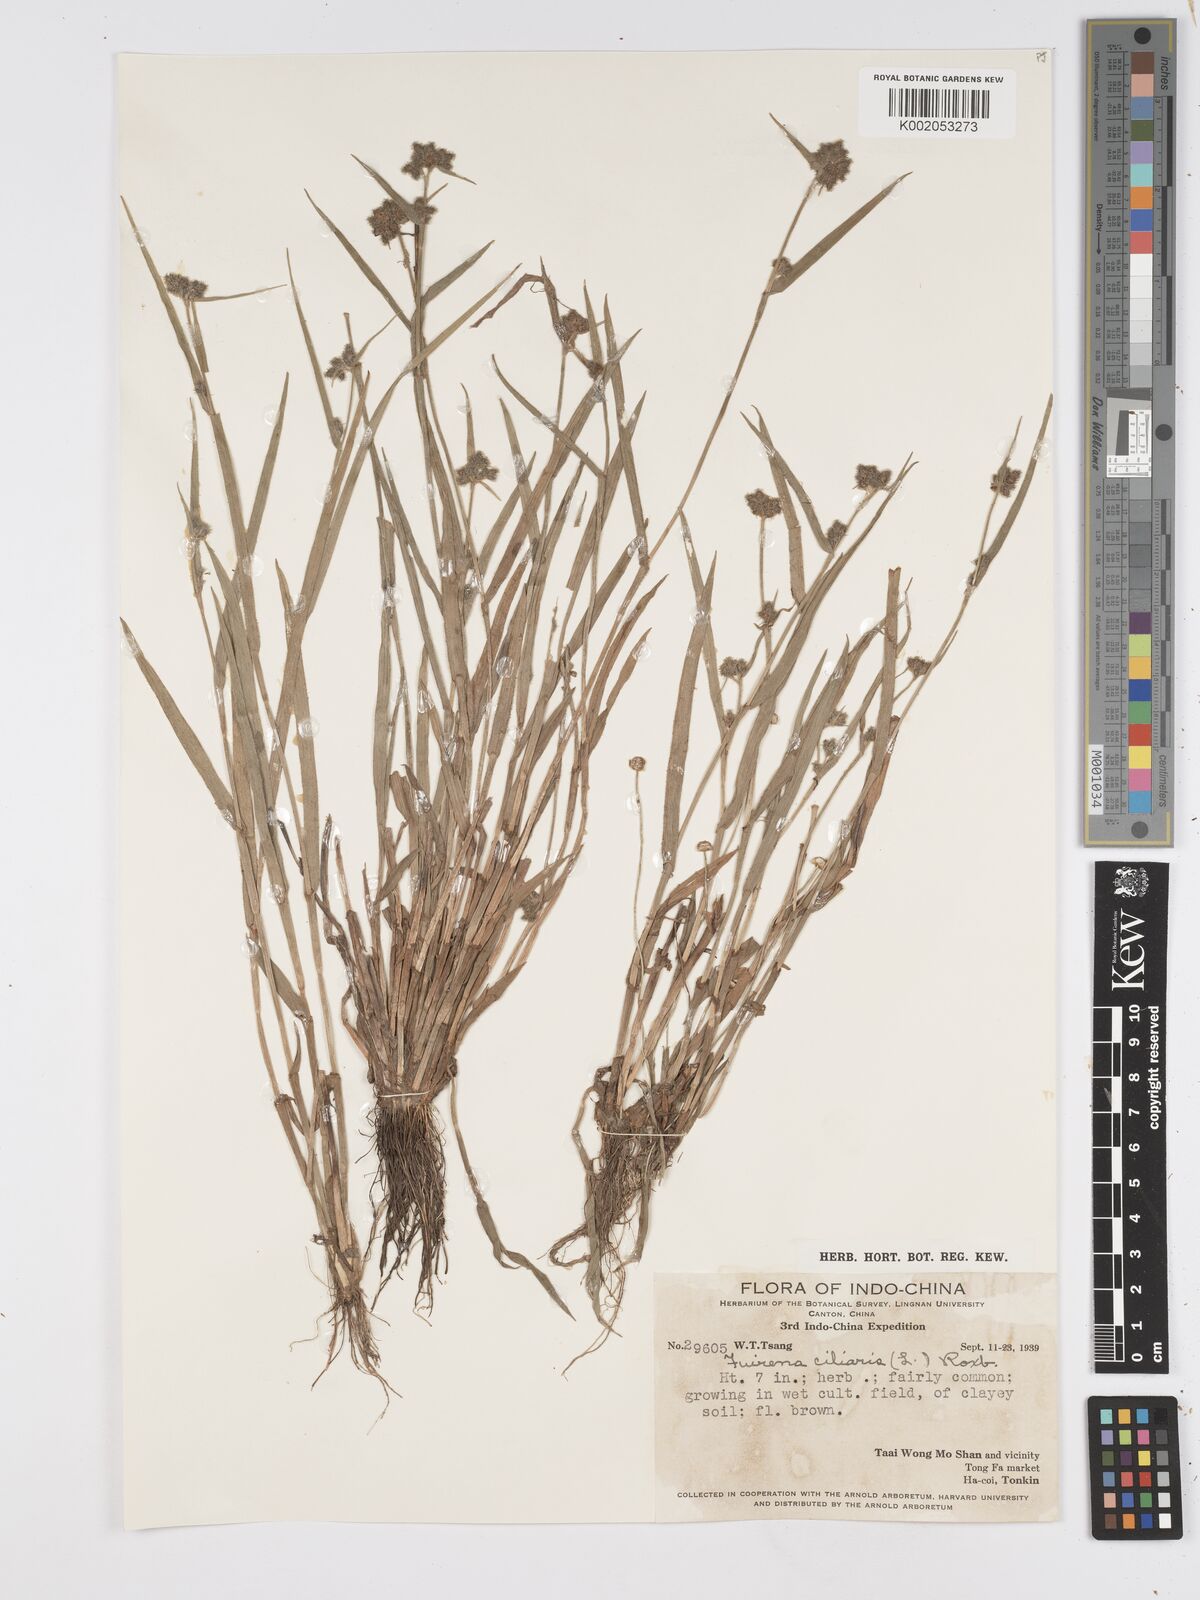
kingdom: Plantae
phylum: Tracheophyta
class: Liliopsida
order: Poales
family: Cyperaceae
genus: Fuirena
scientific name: Fuirena ciliaris
